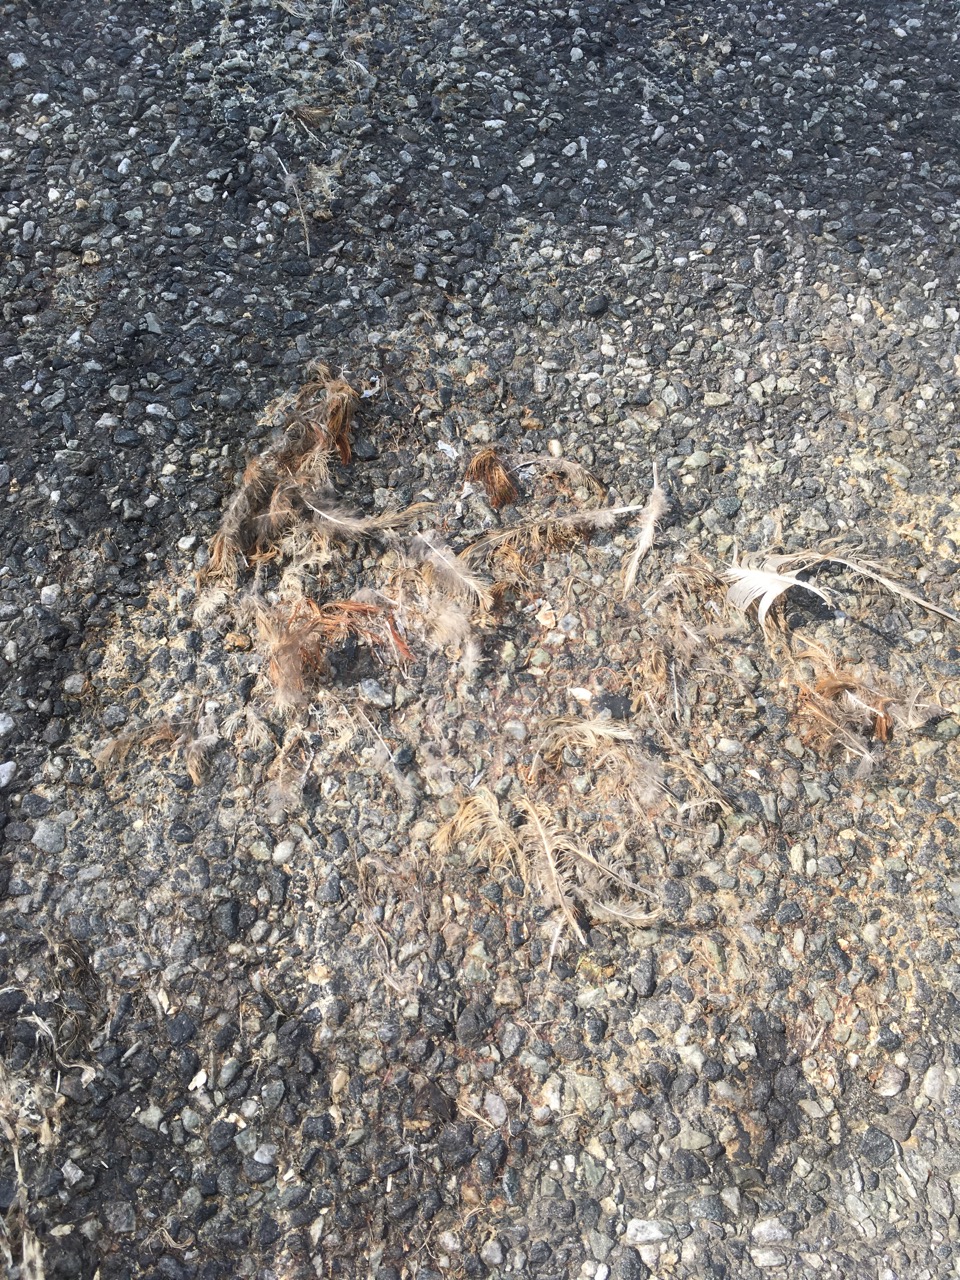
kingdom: Animalia
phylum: Chordata
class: Aves
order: Galliformes
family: Phasianidae
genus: Phasianus
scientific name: Phasianus colchicus
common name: Common pheasant
